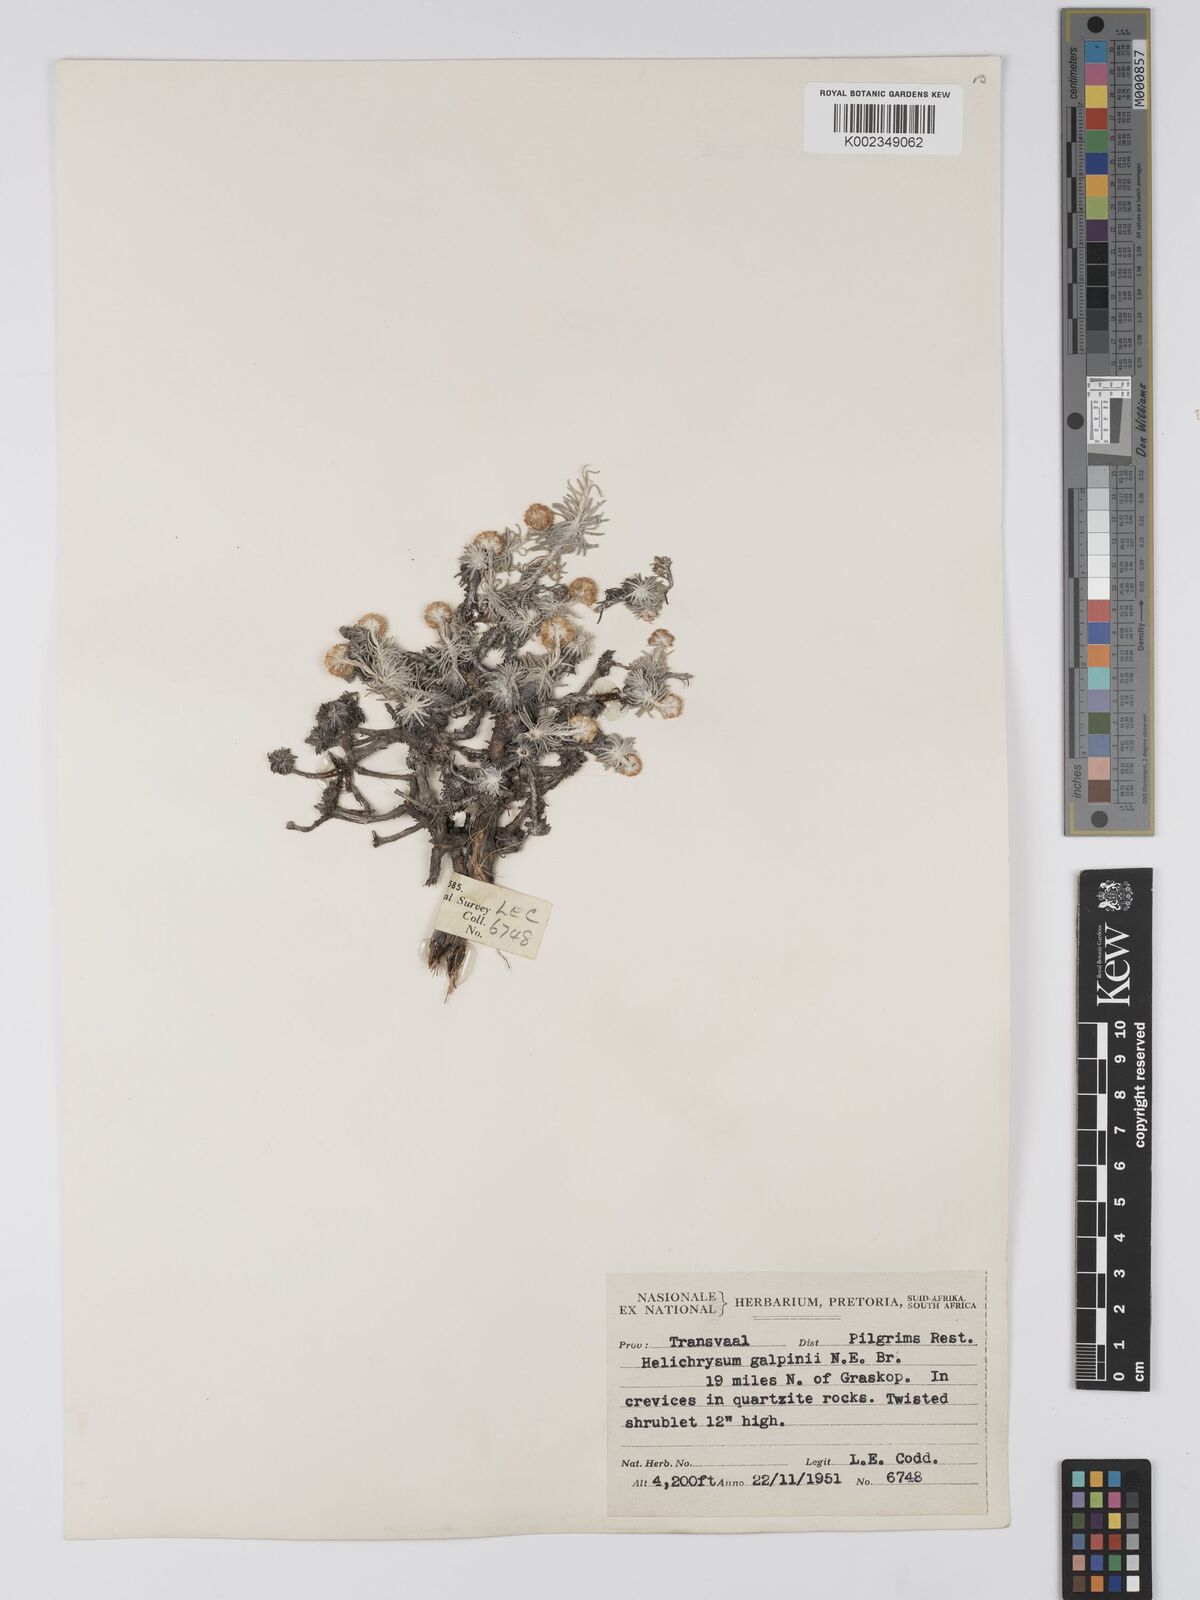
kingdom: Plantae
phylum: Tracheophyta
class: Magnoliopsida
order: Asterales
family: Asteraceae
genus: Helichrysum
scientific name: Helichrysum galpinii
